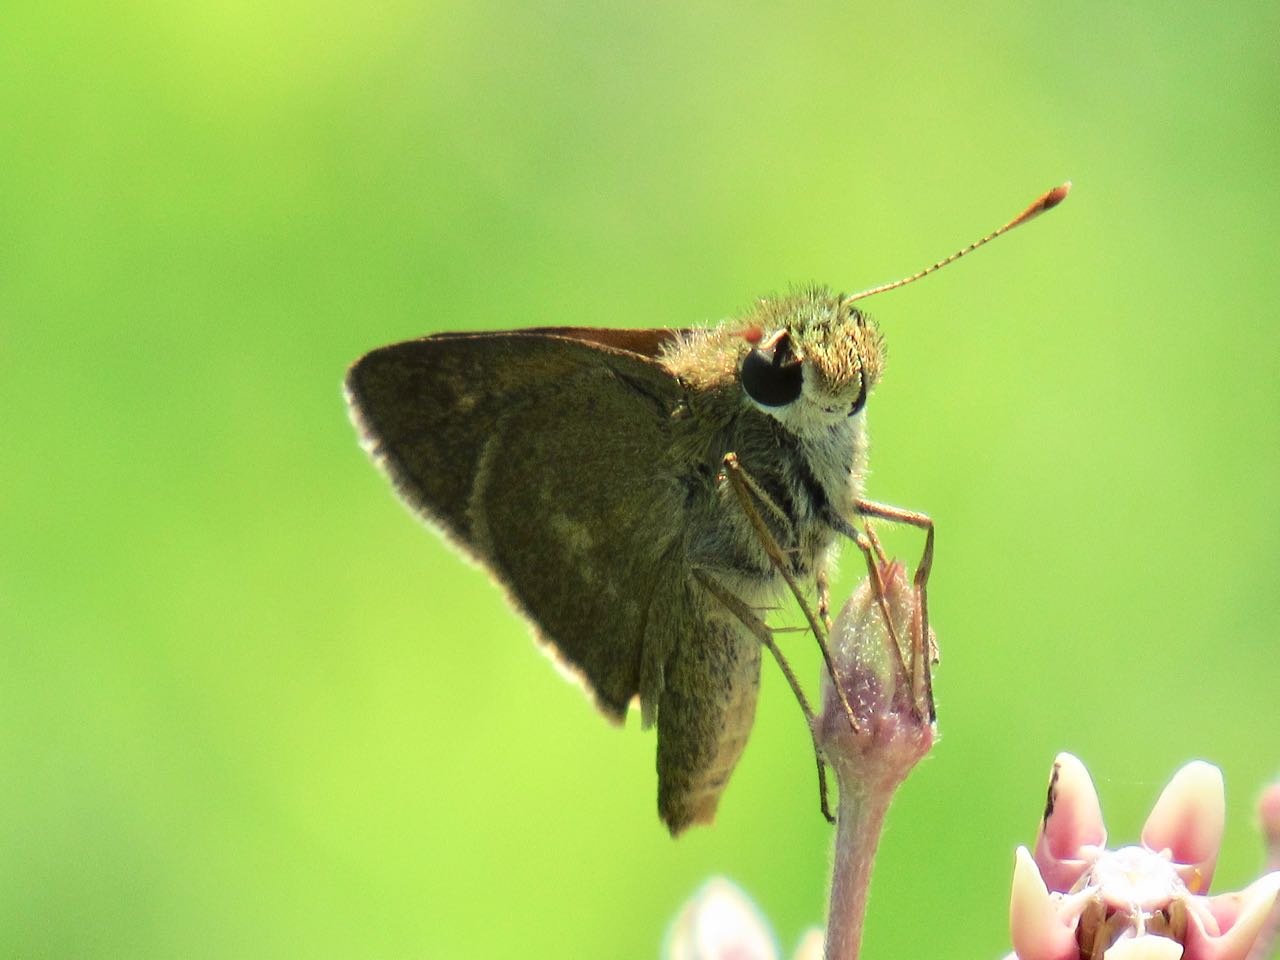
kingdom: Animalia
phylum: Arthropoda
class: Insecta
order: Lepidoptera
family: Hesperiidae
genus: Polites
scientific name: Polites egeremet
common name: Northern Broken-Dash
